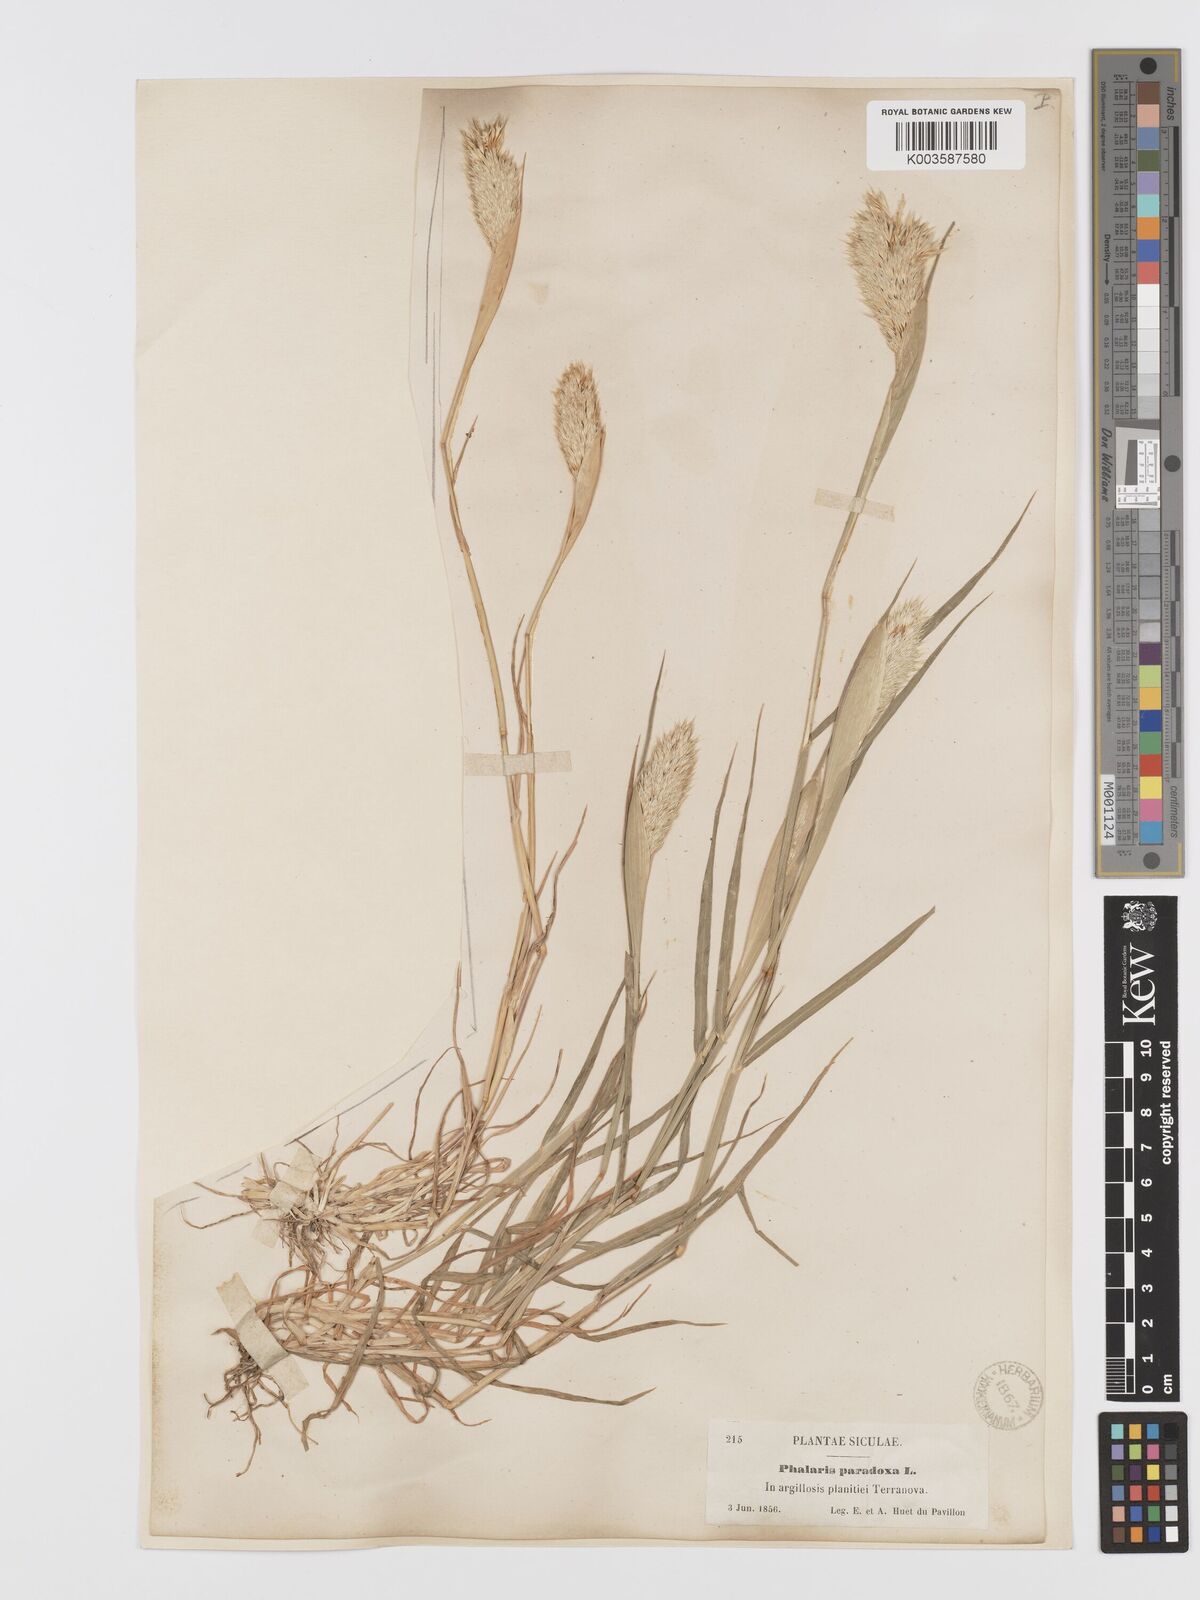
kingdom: Plantae
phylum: Tracheophyta
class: Liliopsida
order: Poales
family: Poaceae
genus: Phalaris
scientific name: Phalaris paradoxa
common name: Awned canary-grass
